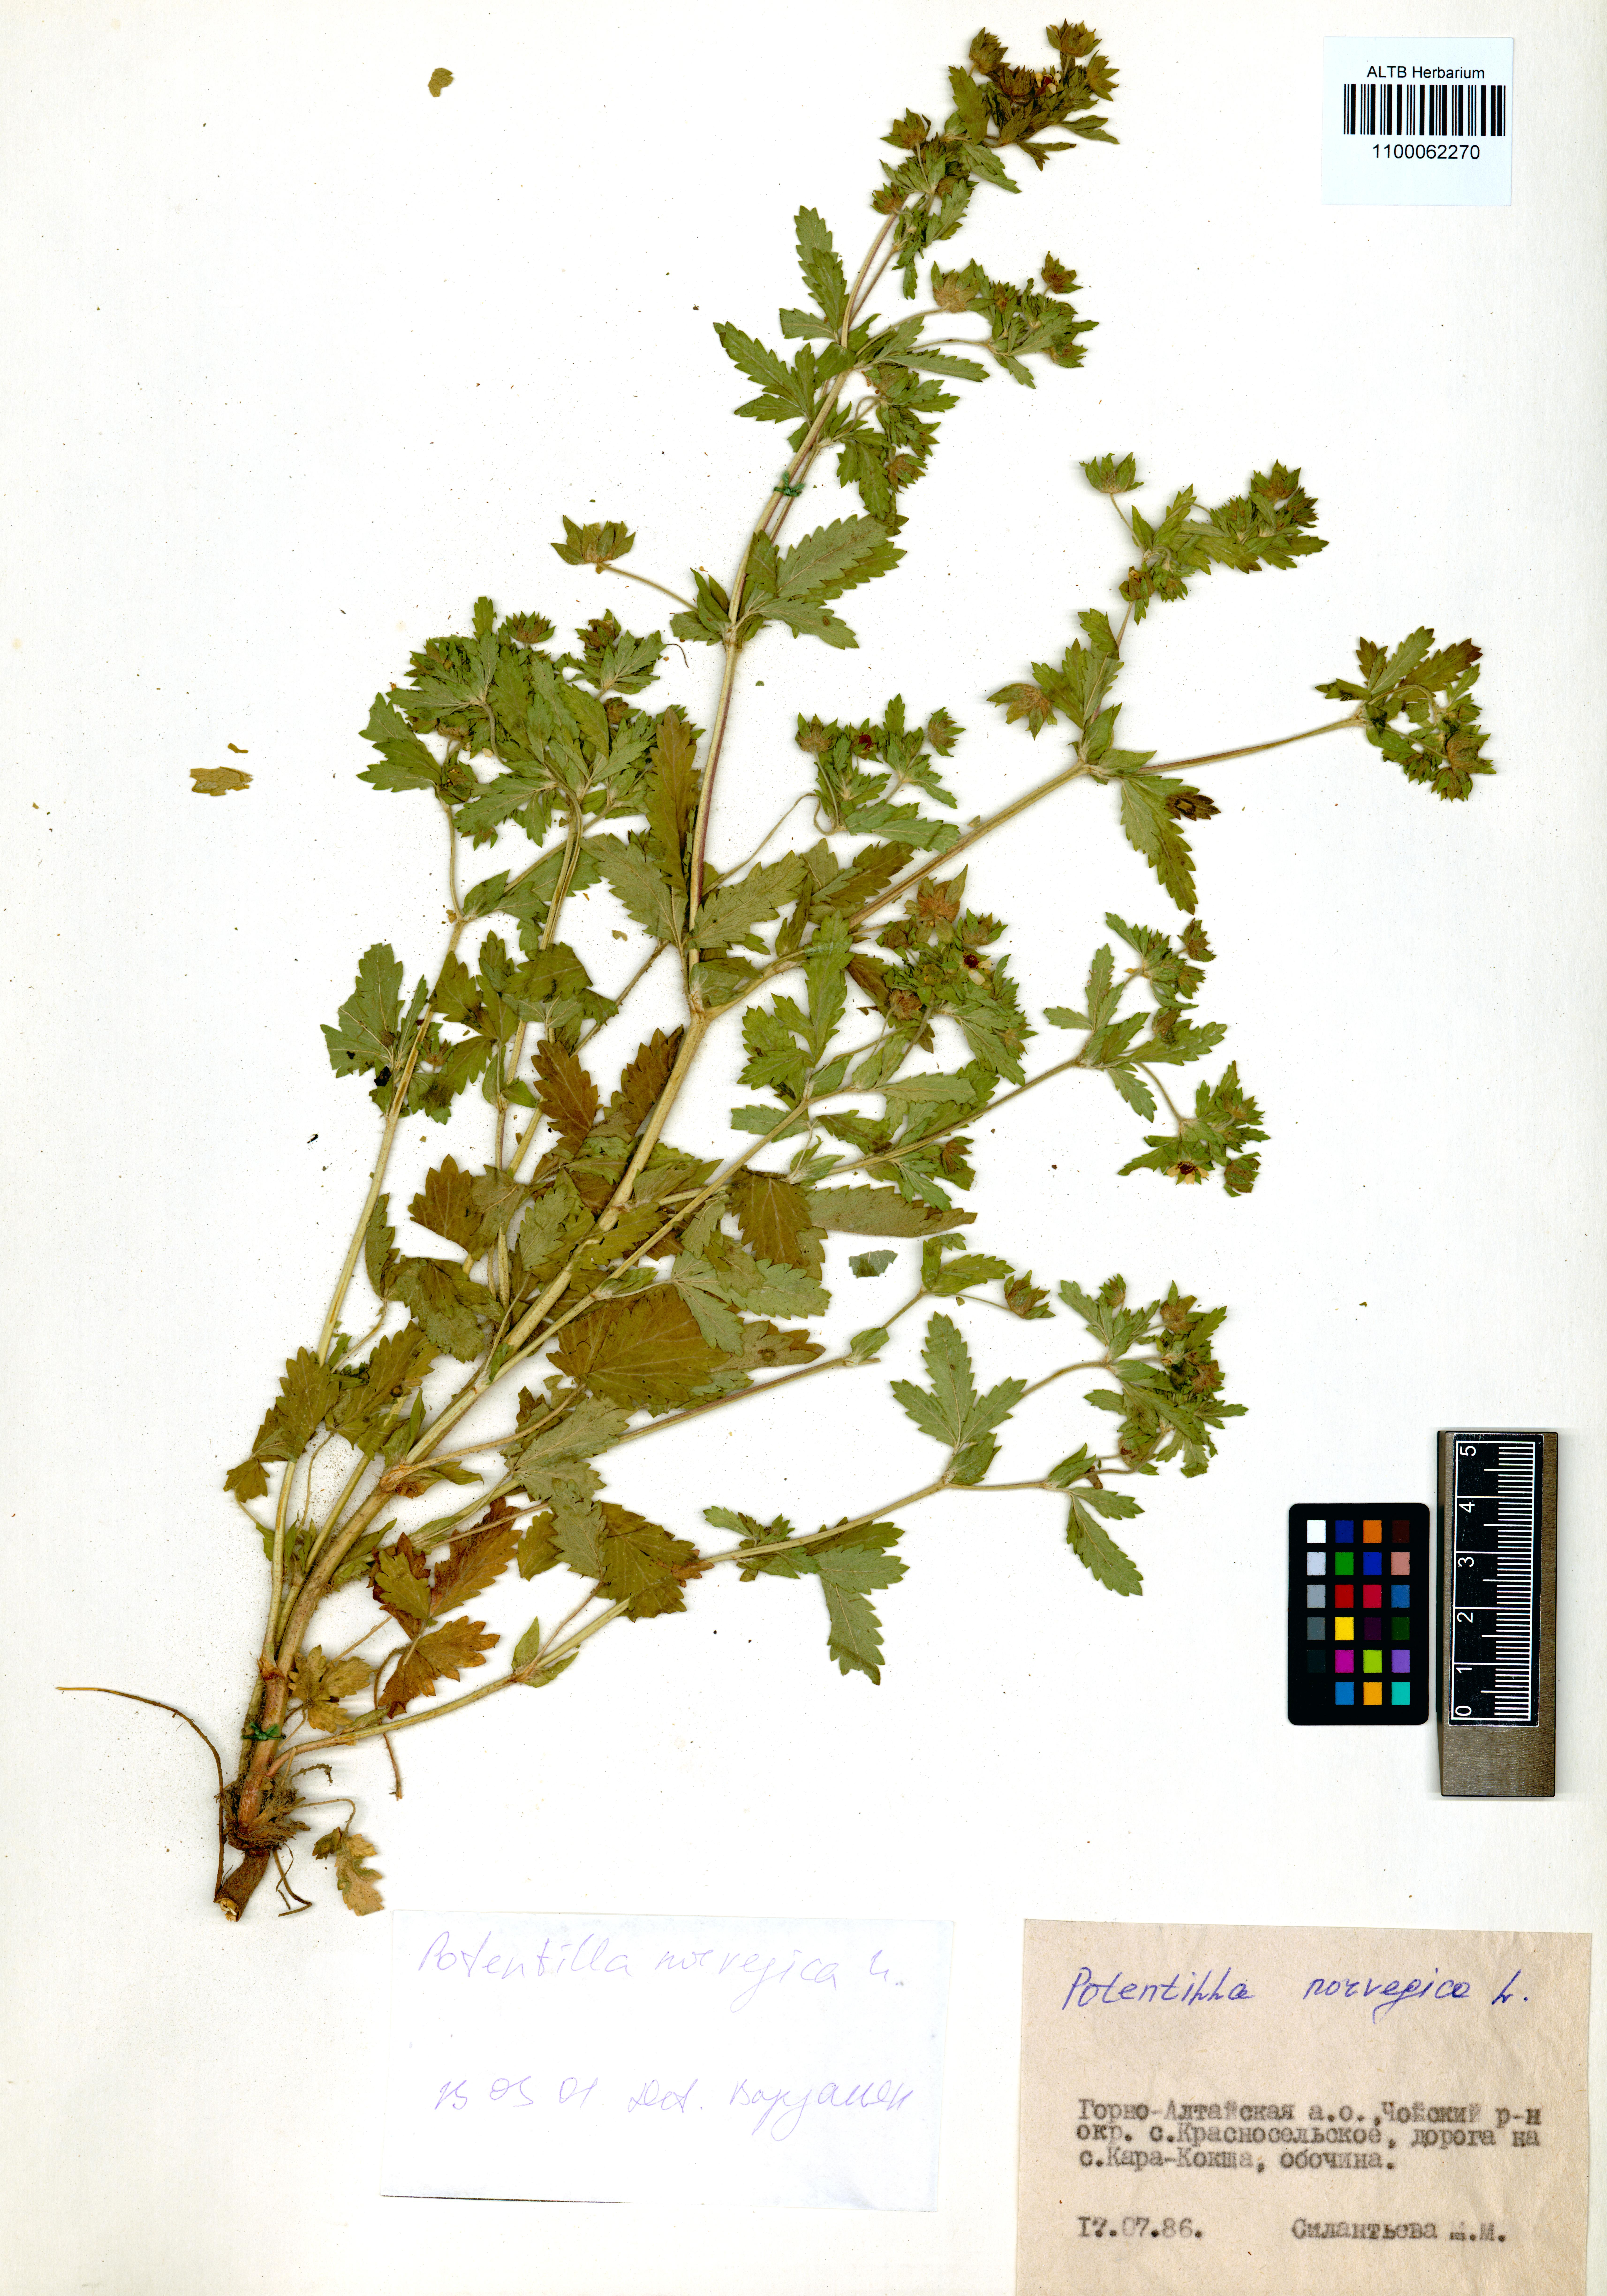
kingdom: Plantae
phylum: Tracheophyta
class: Magnoliopsida
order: Rosales
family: Rosaceae
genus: Potentilla
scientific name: Potentilla norvegica
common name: Ternate-leaved cinquefoil
